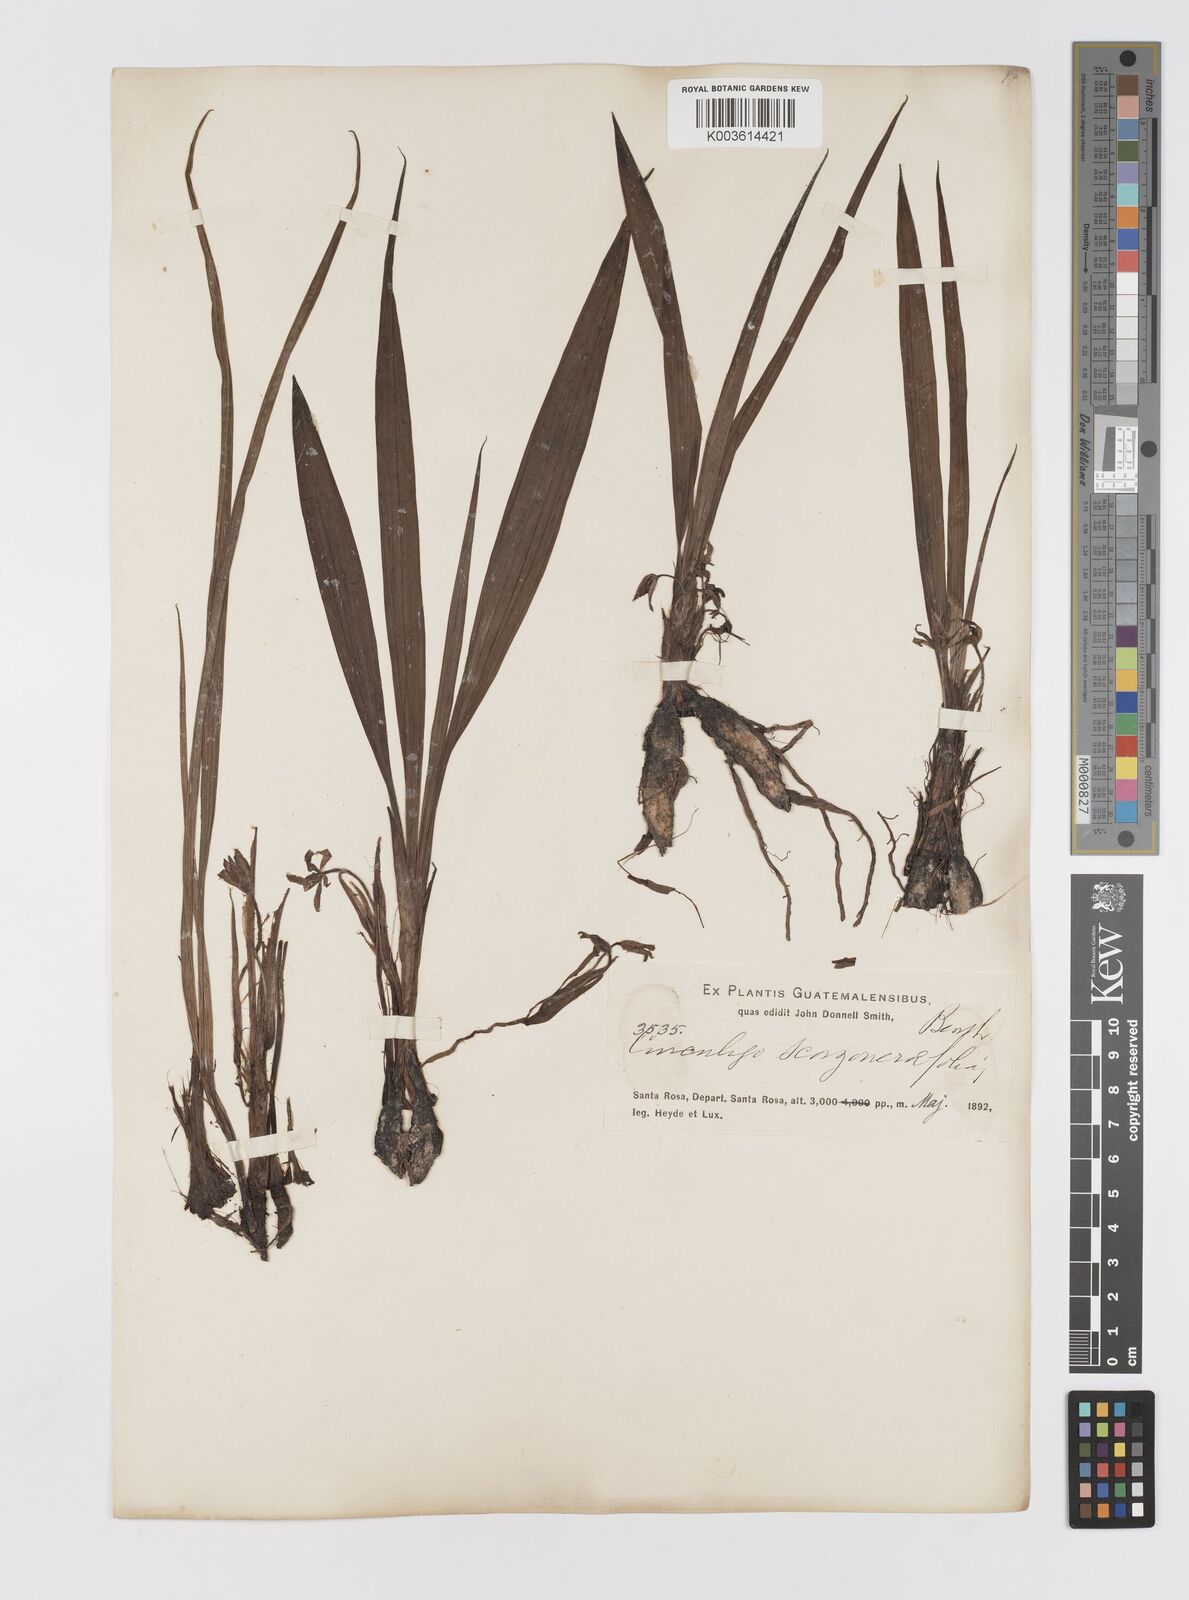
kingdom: Plantae
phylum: Tracheophyta
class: Liliopsida
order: Asparagales
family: Hypoxidaceae
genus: Curculigo
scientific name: Curculigo scorzonerifolia
